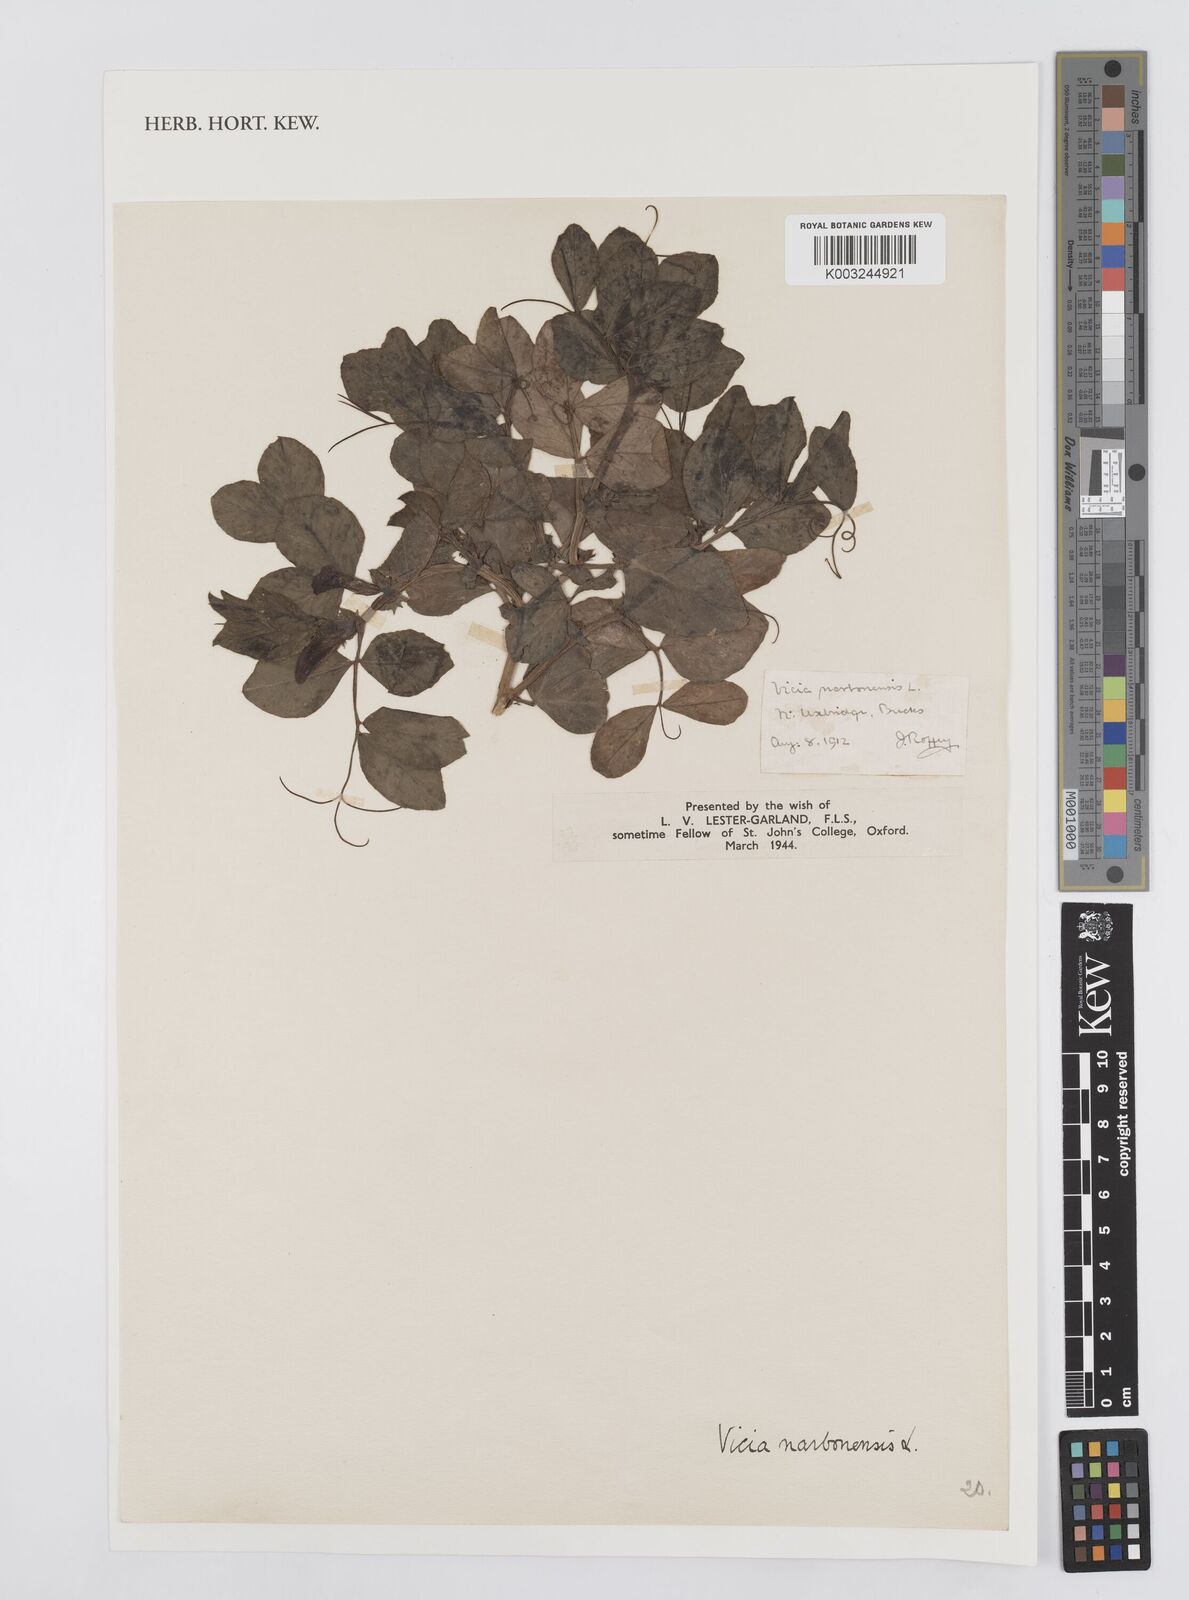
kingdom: Plantae
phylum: Tracheophyta
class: Magnoliopsida
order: Fabales
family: Fabaceae
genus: Vicia
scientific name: Vicia narbonensis
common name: Narbonne vetch
